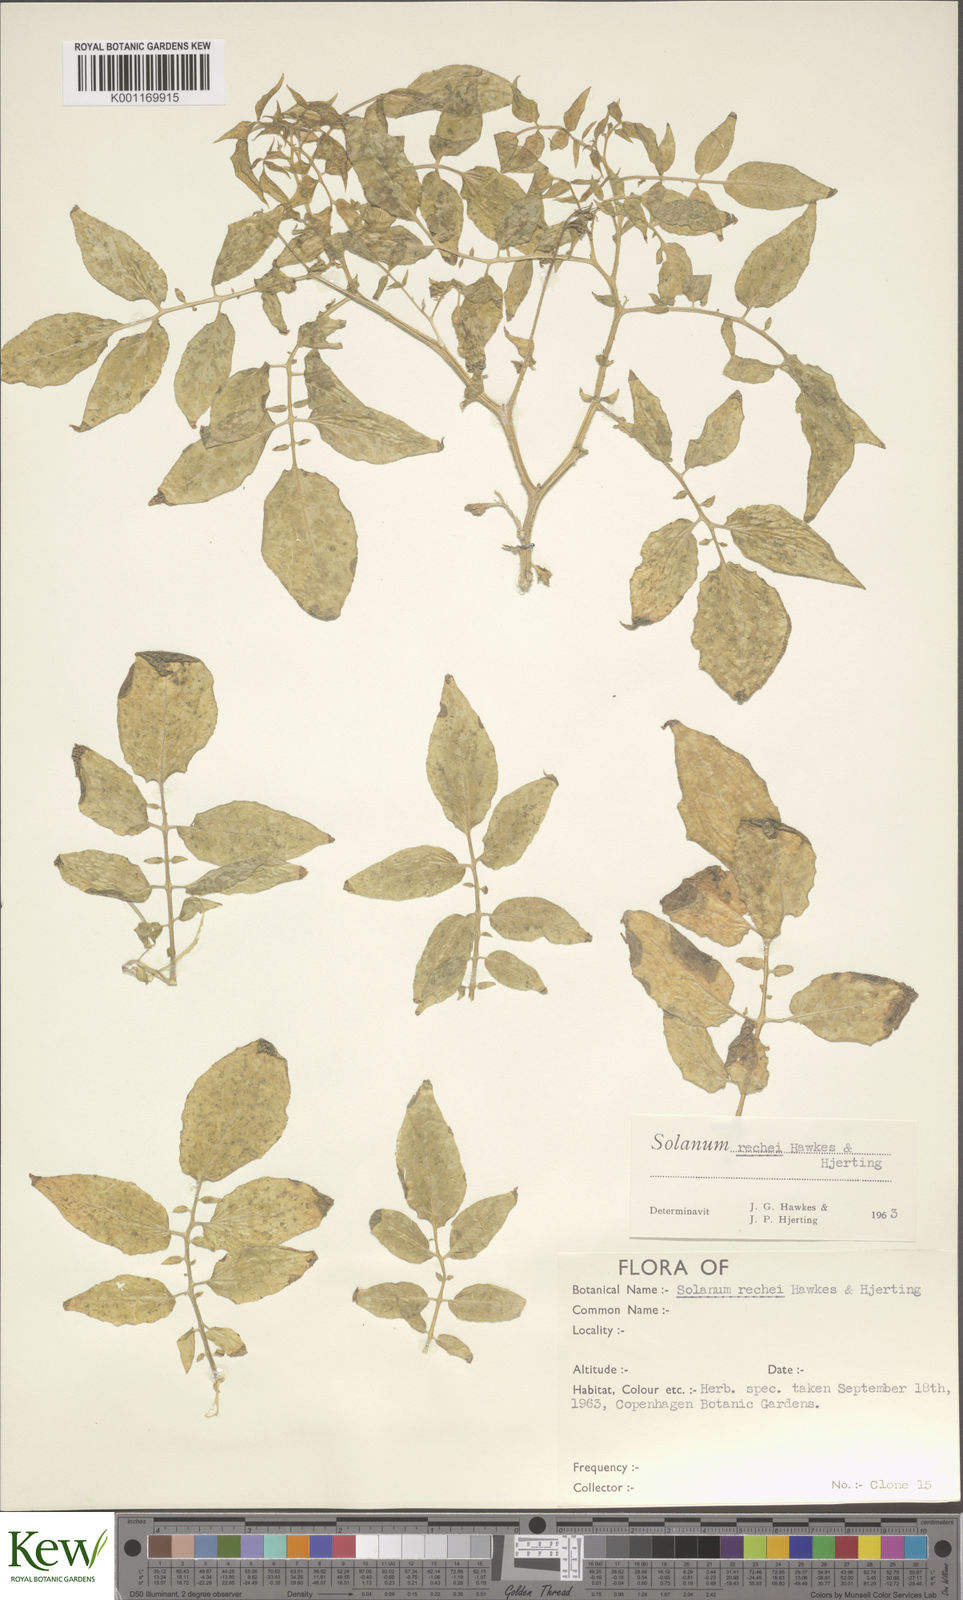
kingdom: Plantae
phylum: Tracheophyta
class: Magnoliopsida
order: Solanales
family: Solanaceae
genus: Solanum
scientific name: Solanum rechei
